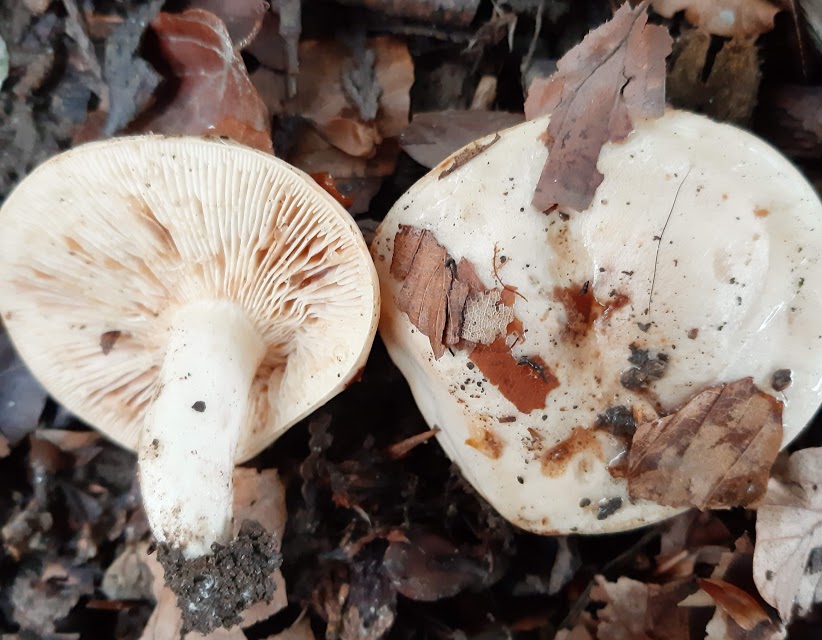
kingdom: Fungi
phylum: Basidiomycota
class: Agaricomycetes
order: Russulales
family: Russulaceae
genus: Lactarius
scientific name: Lactarius pallidus
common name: bleg mælkehat
